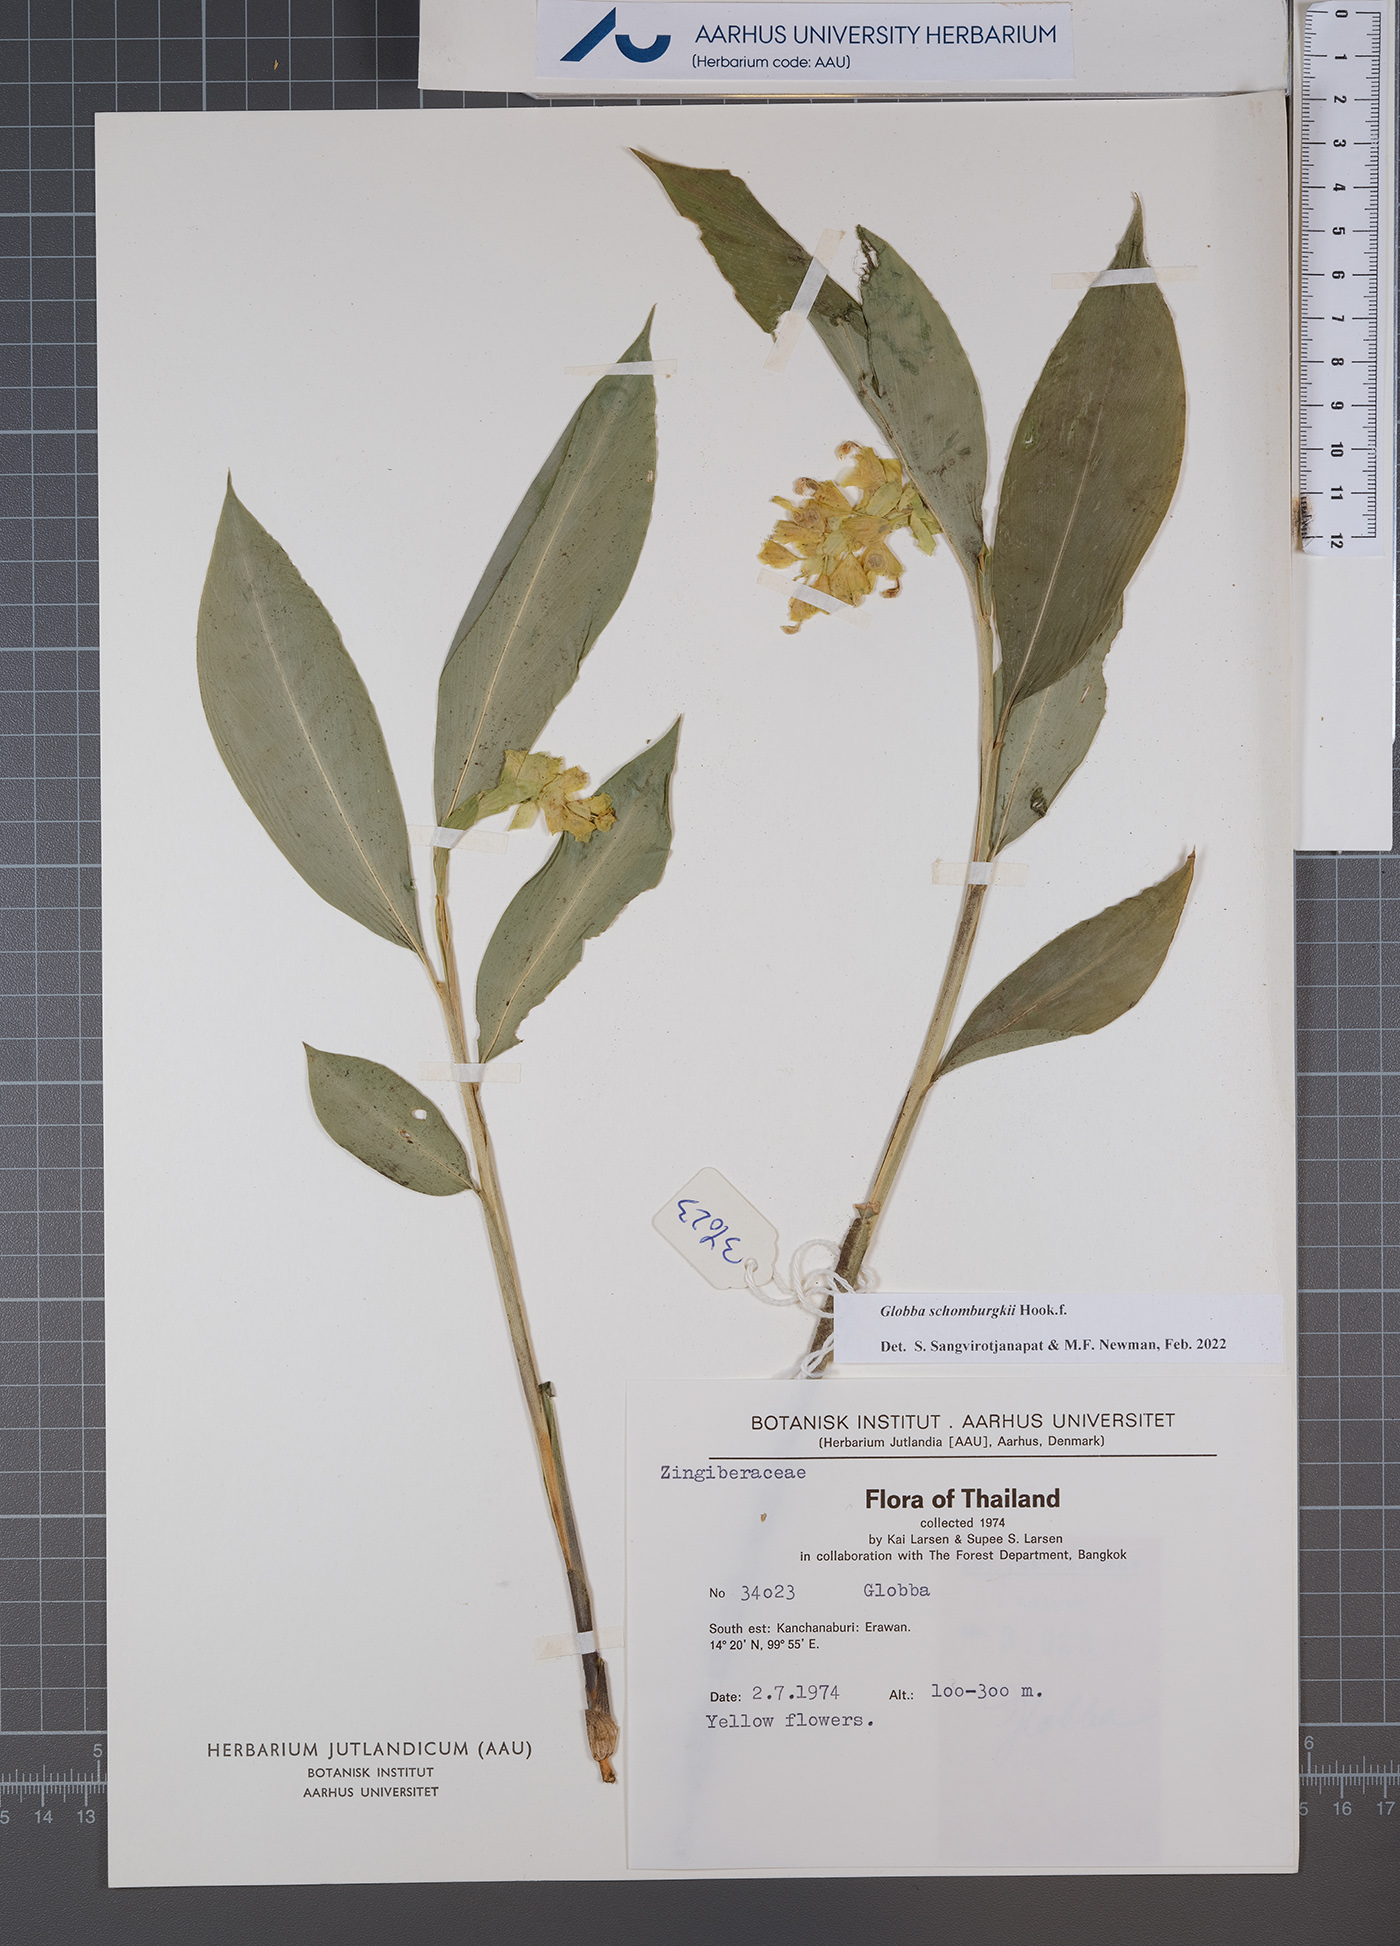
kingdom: Plantae
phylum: Tracheophyta
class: Liliopsida
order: Zingiberales
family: Zingiberaceae
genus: Globba
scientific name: Globba schomburgkii
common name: Dancing girl ginger
